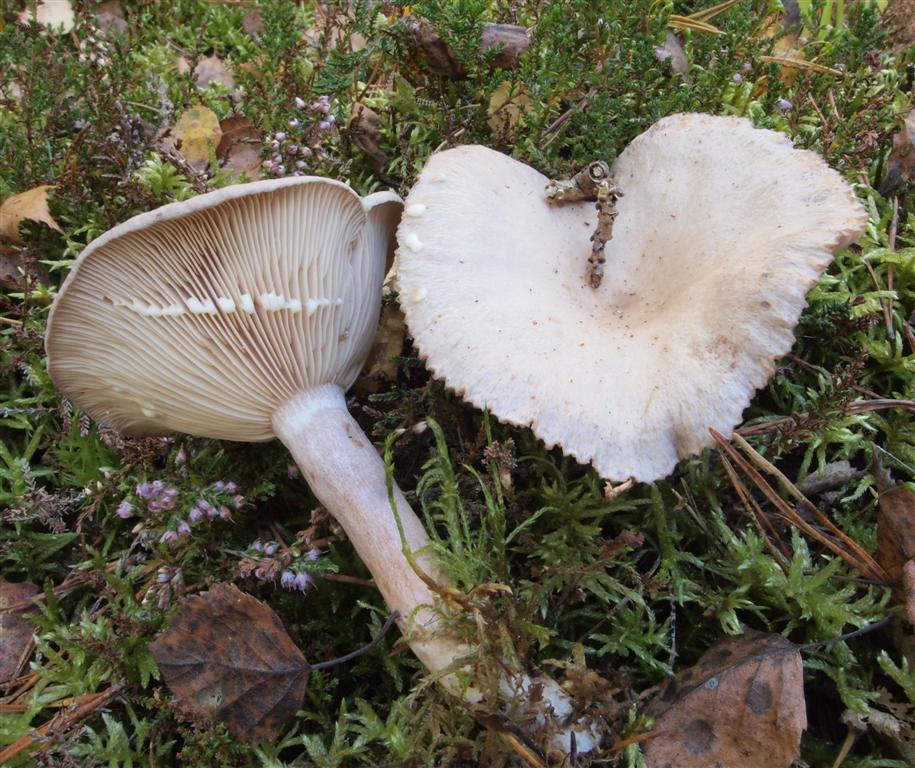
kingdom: Fungi
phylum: Basidiomycota
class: Agaricomycetes
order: Russulales
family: Russulaceae
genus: Lactarius
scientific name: Lactarius vietus
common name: violetgrå mælkehat
